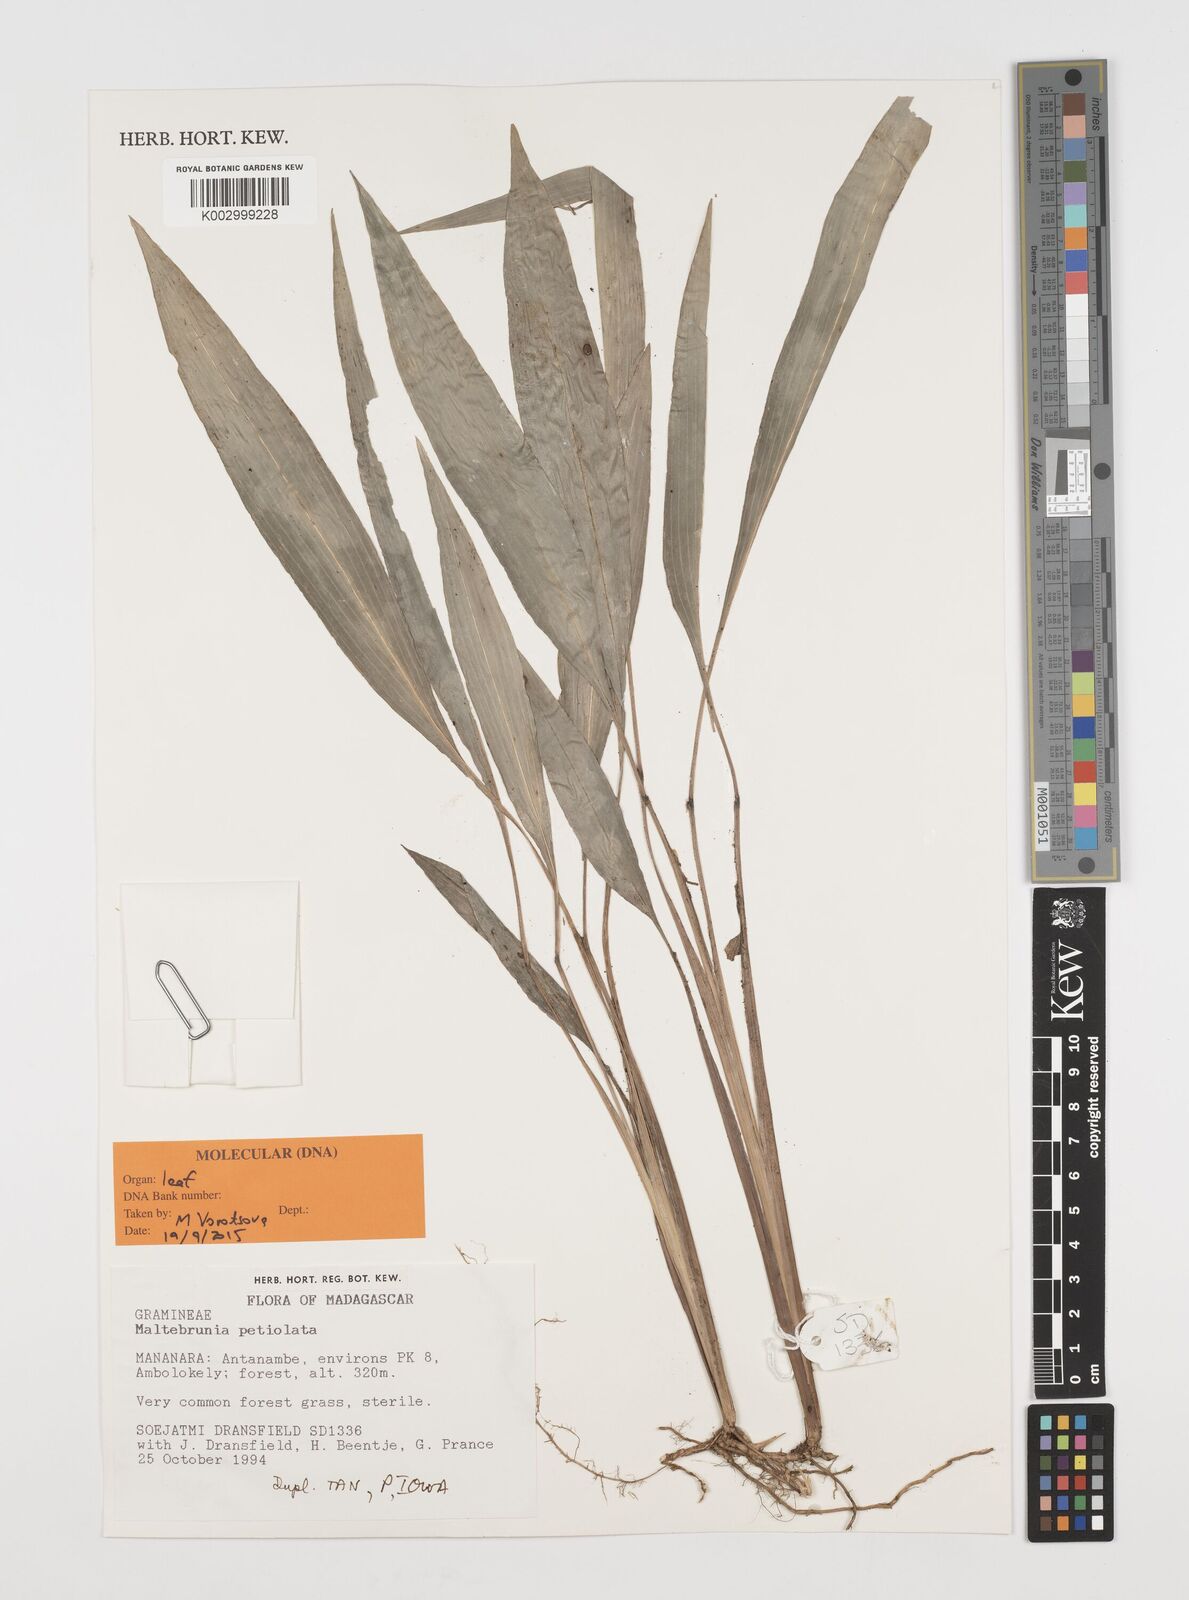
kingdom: Plantae
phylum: Tracheophyta
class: Liliopsida
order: Poales
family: Poaceae
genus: Maltebrunia
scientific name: Maltebrunia leersioides
